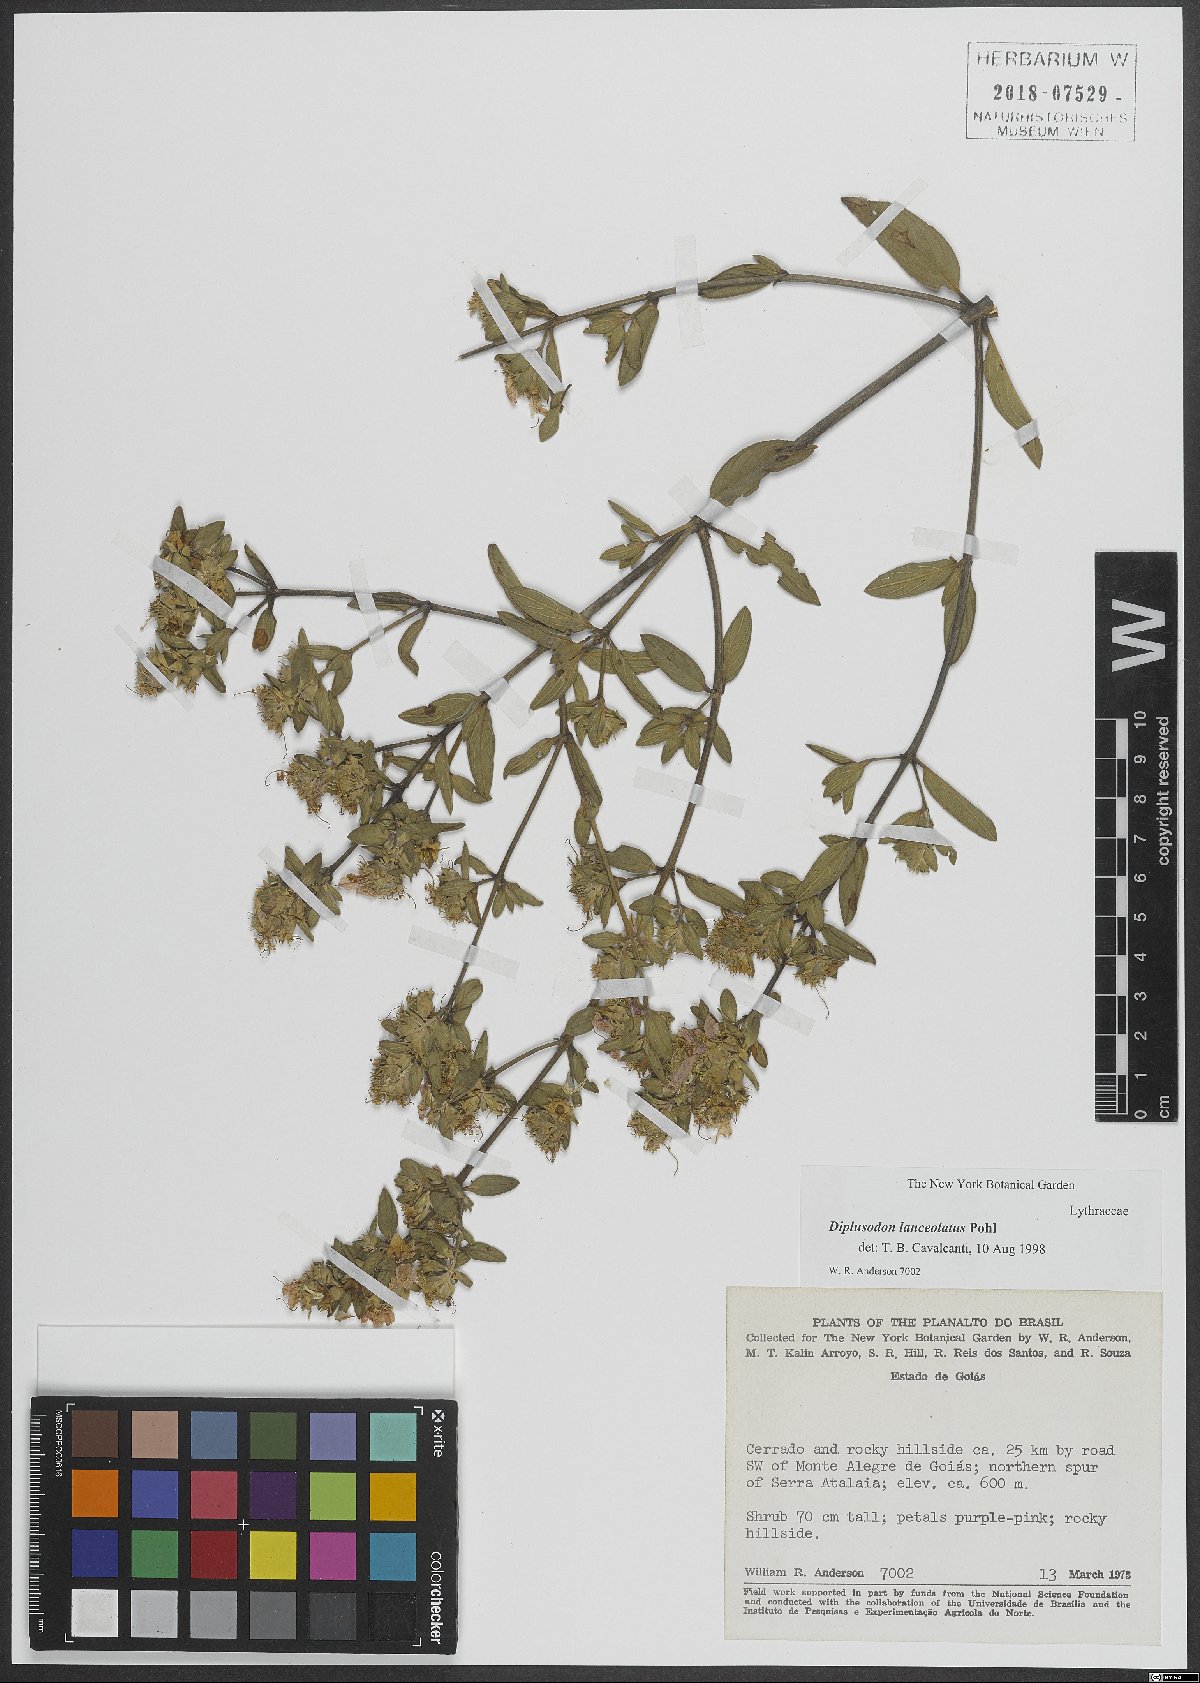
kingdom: Plantae
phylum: Tracheophyta
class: Magnoliopsida
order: Myrtales
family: Lythraceae
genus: Diplusodon
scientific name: Diplusodon lanceolatus
